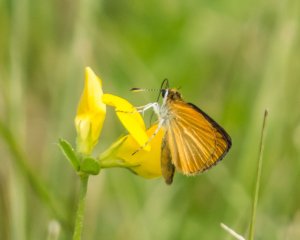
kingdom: Animalia
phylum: Arthropoda
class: Insecta
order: Lepidoptera
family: Hesperiidae
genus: Ancyloxypha
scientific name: Ancyloxypha numitor
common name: Least Skipper
